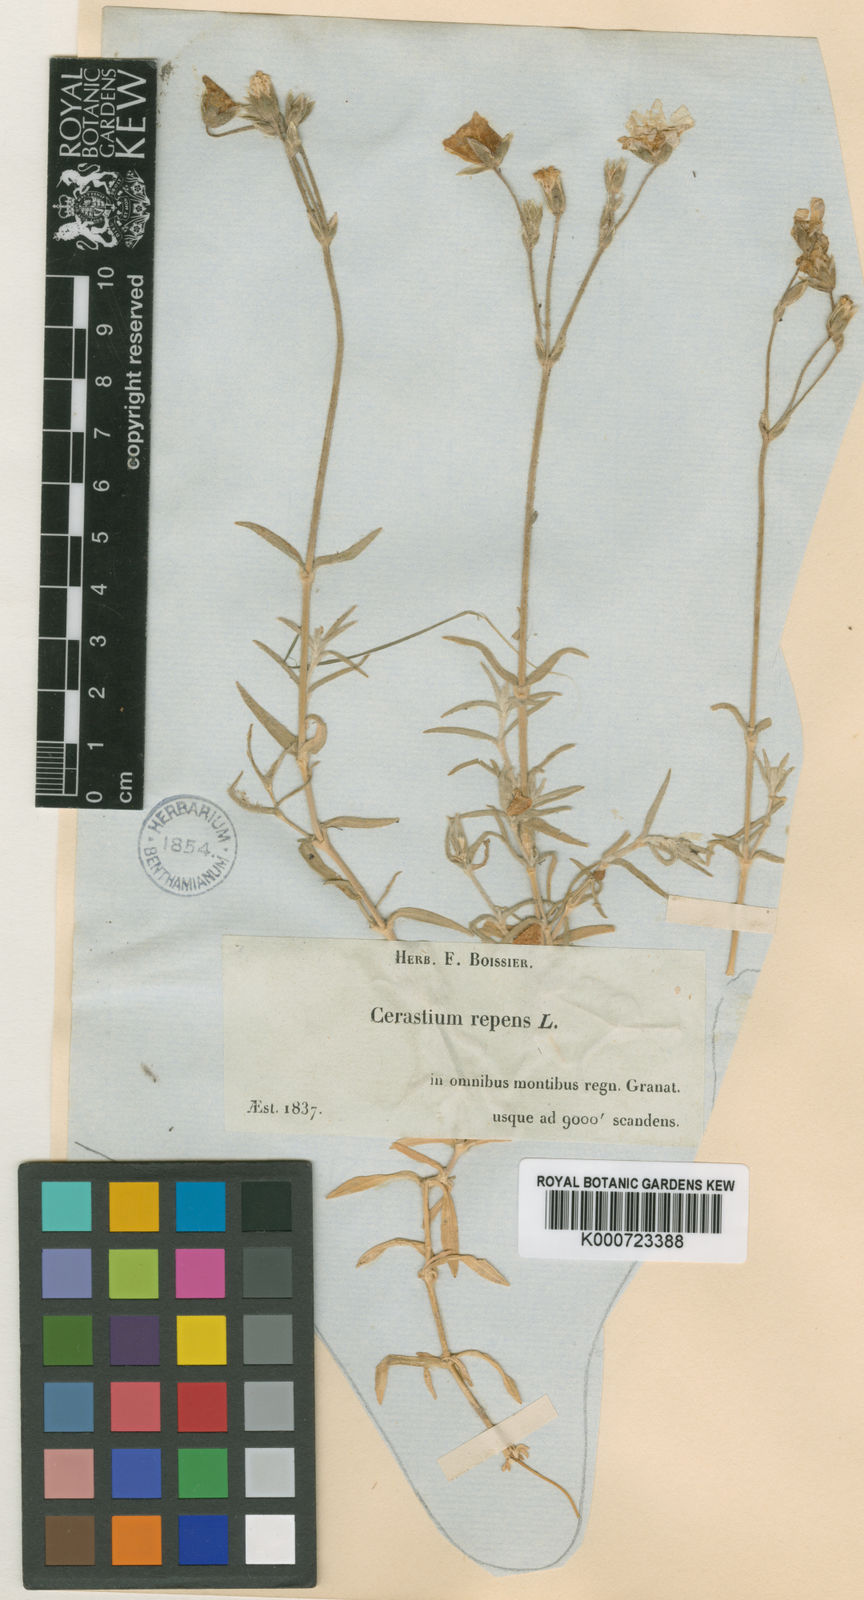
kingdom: Plantae
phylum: Tracheophyta
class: Magnoliopsida
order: Caryophyllales
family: Caryophyllaceae
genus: Cerastium
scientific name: Cerastium gibraltaricum
